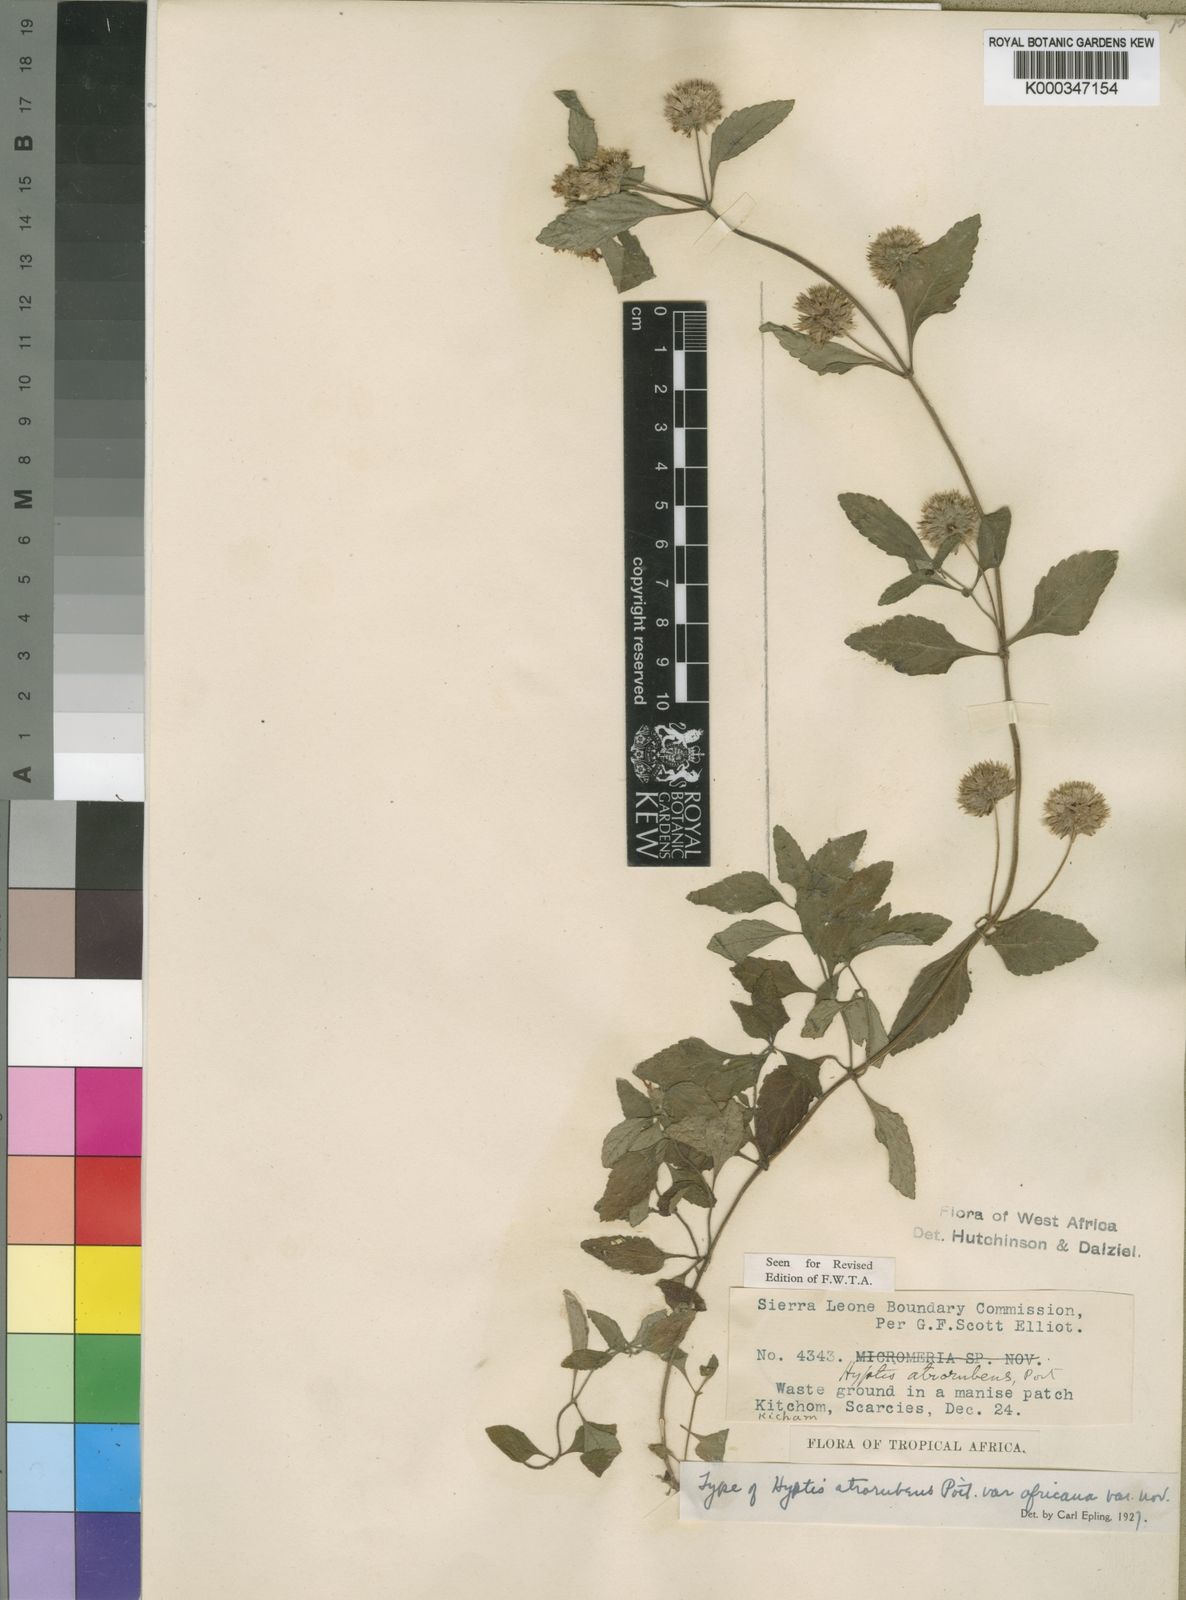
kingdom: Plantae
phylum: Tracheophyta
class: Magnoliopsida
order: Lamiales
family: Lamiaceae
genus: Hyptis
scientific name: Hyptis atrorubens
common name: Lanmant
